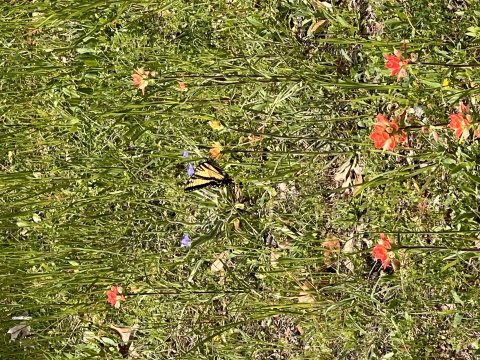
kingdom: Animalia
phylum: Arthropoda
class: Insecta
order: Lepidoptera
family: Papilionidae
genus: Pterourus
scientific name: Pterourus glaucus
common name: Eastern Tiger Swallowtail
